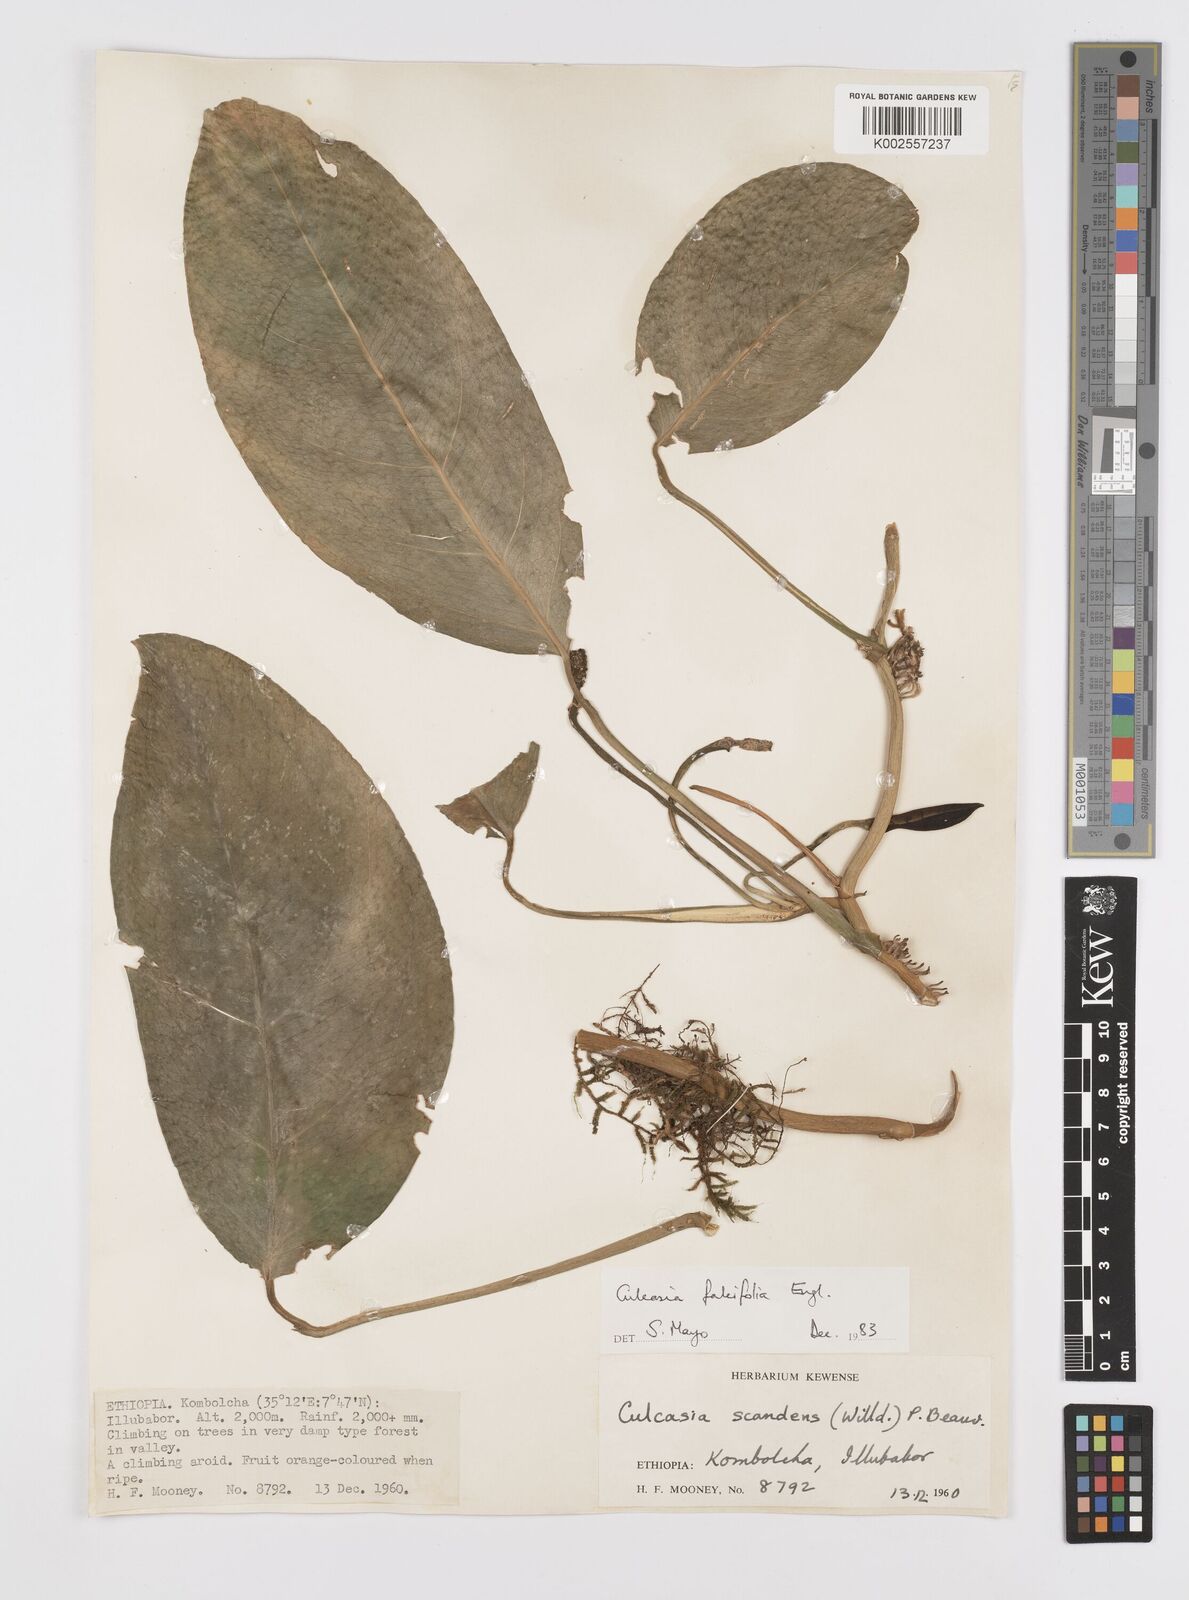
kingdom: Plantae
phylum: Tracheophyta
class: Liliopsida
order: Alismatales
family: Araceae
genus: Culcasia
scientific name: Culcasia falcifolia
